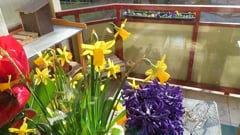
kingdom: Animalia
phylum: Arthropoda
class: Insecta
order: Lepidoptera
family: Sphingidae
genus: Macroglossum
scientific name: Macroglossum stellatarum
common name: Humming-bird hawk-moth
